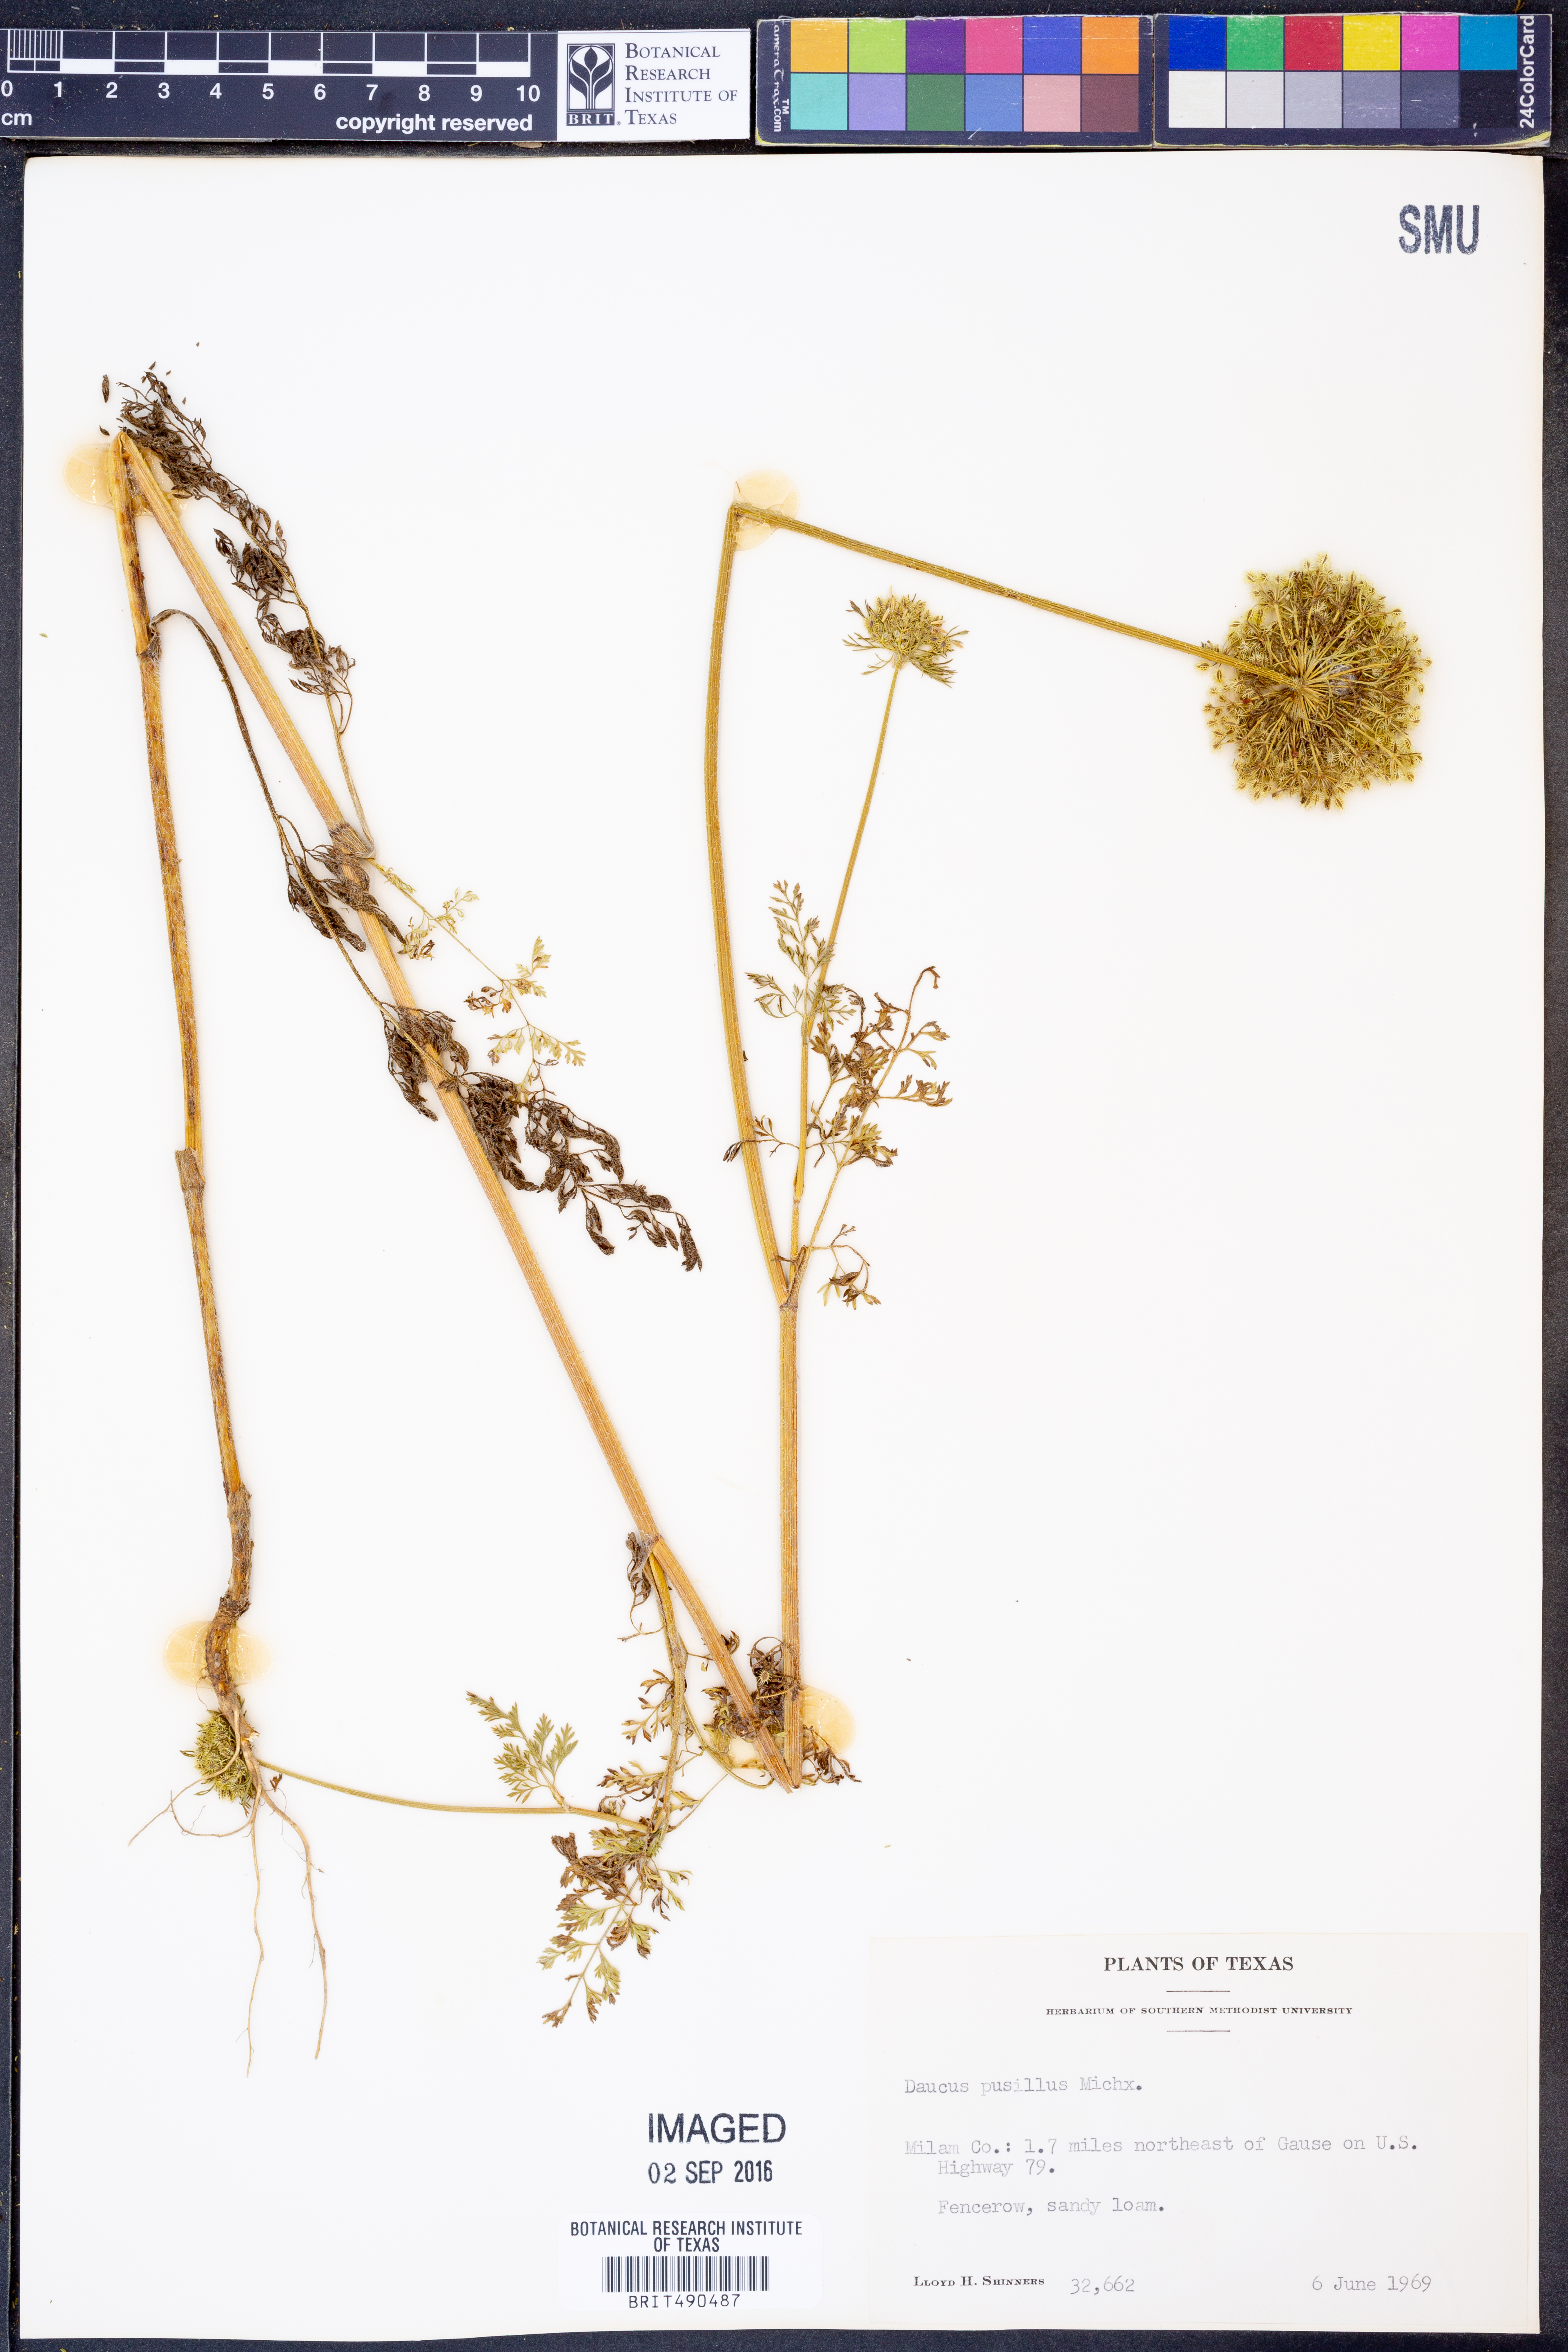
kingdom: Plantae
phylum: Tracheophyta
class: Magnoliopsida
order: Apiales
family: Apiaceae
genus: Daucus
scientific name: Daucus pusillus
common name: Southwest wild carrot
